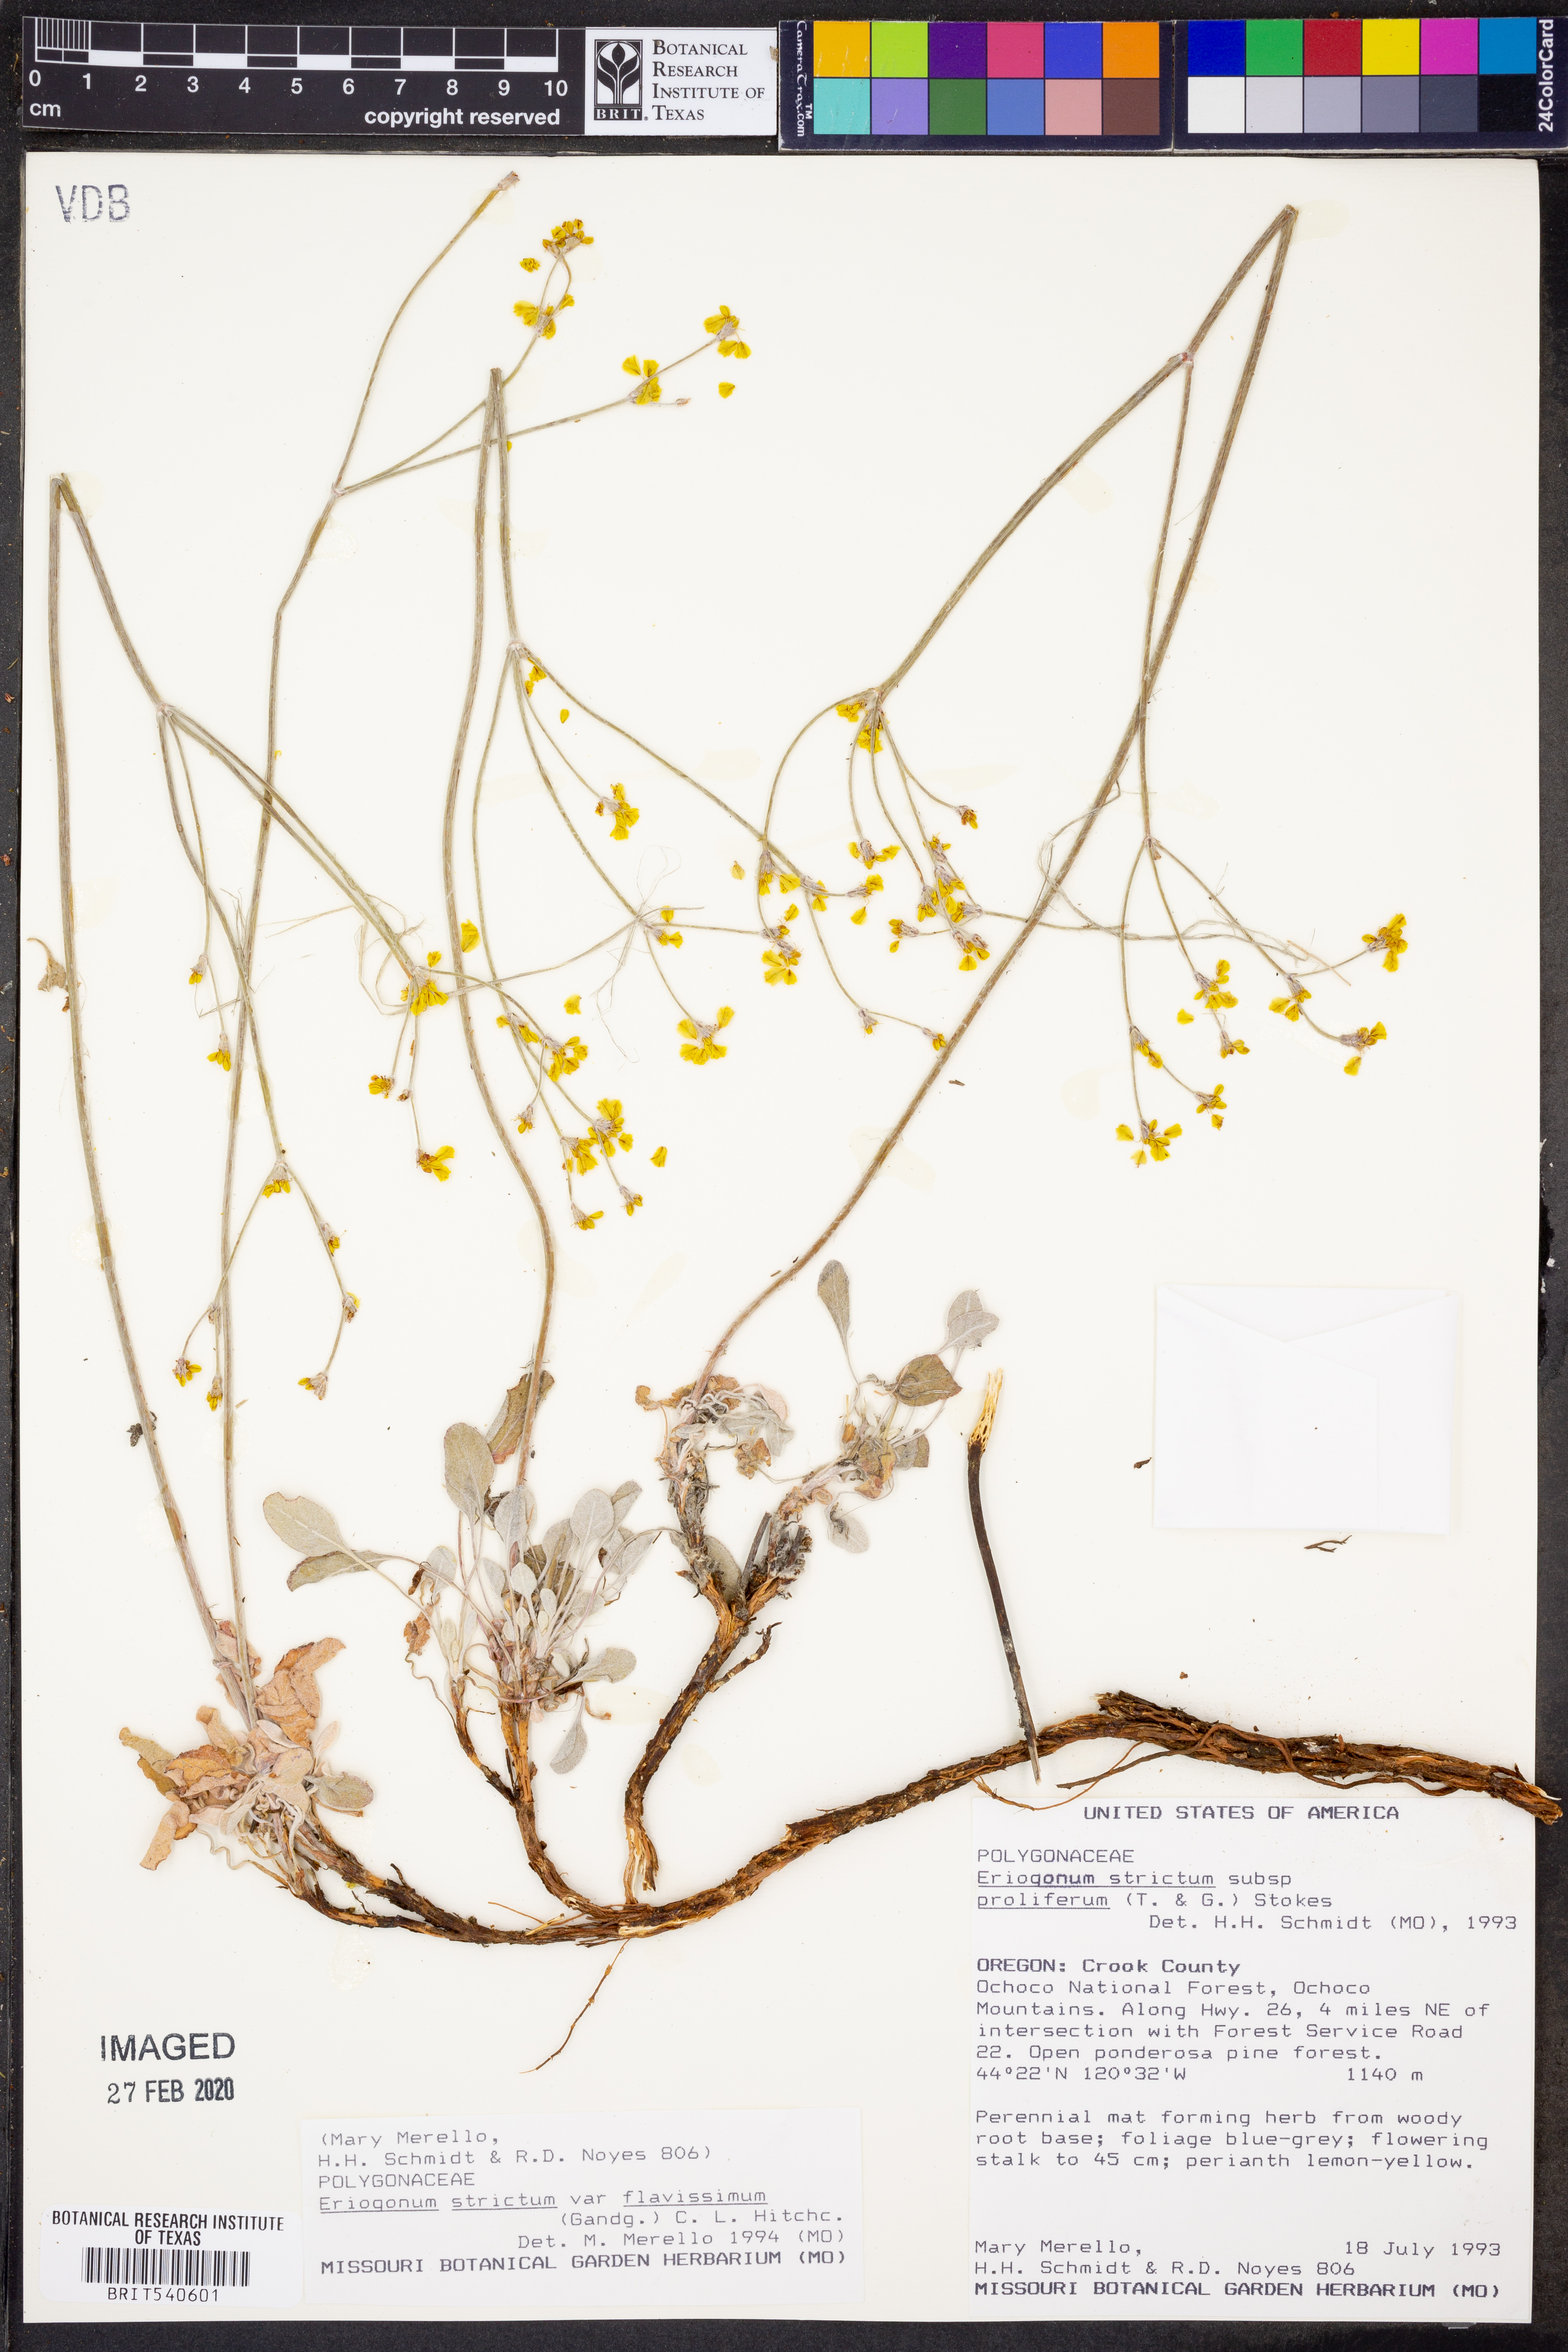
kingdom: Plantae
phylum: Tracheophyta
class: Magnoliopsida
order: Caryophyllales
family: Polygonaceae
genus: Eriogonum
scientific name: Eriogonum strictum
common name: Blue mountain buckwheat
